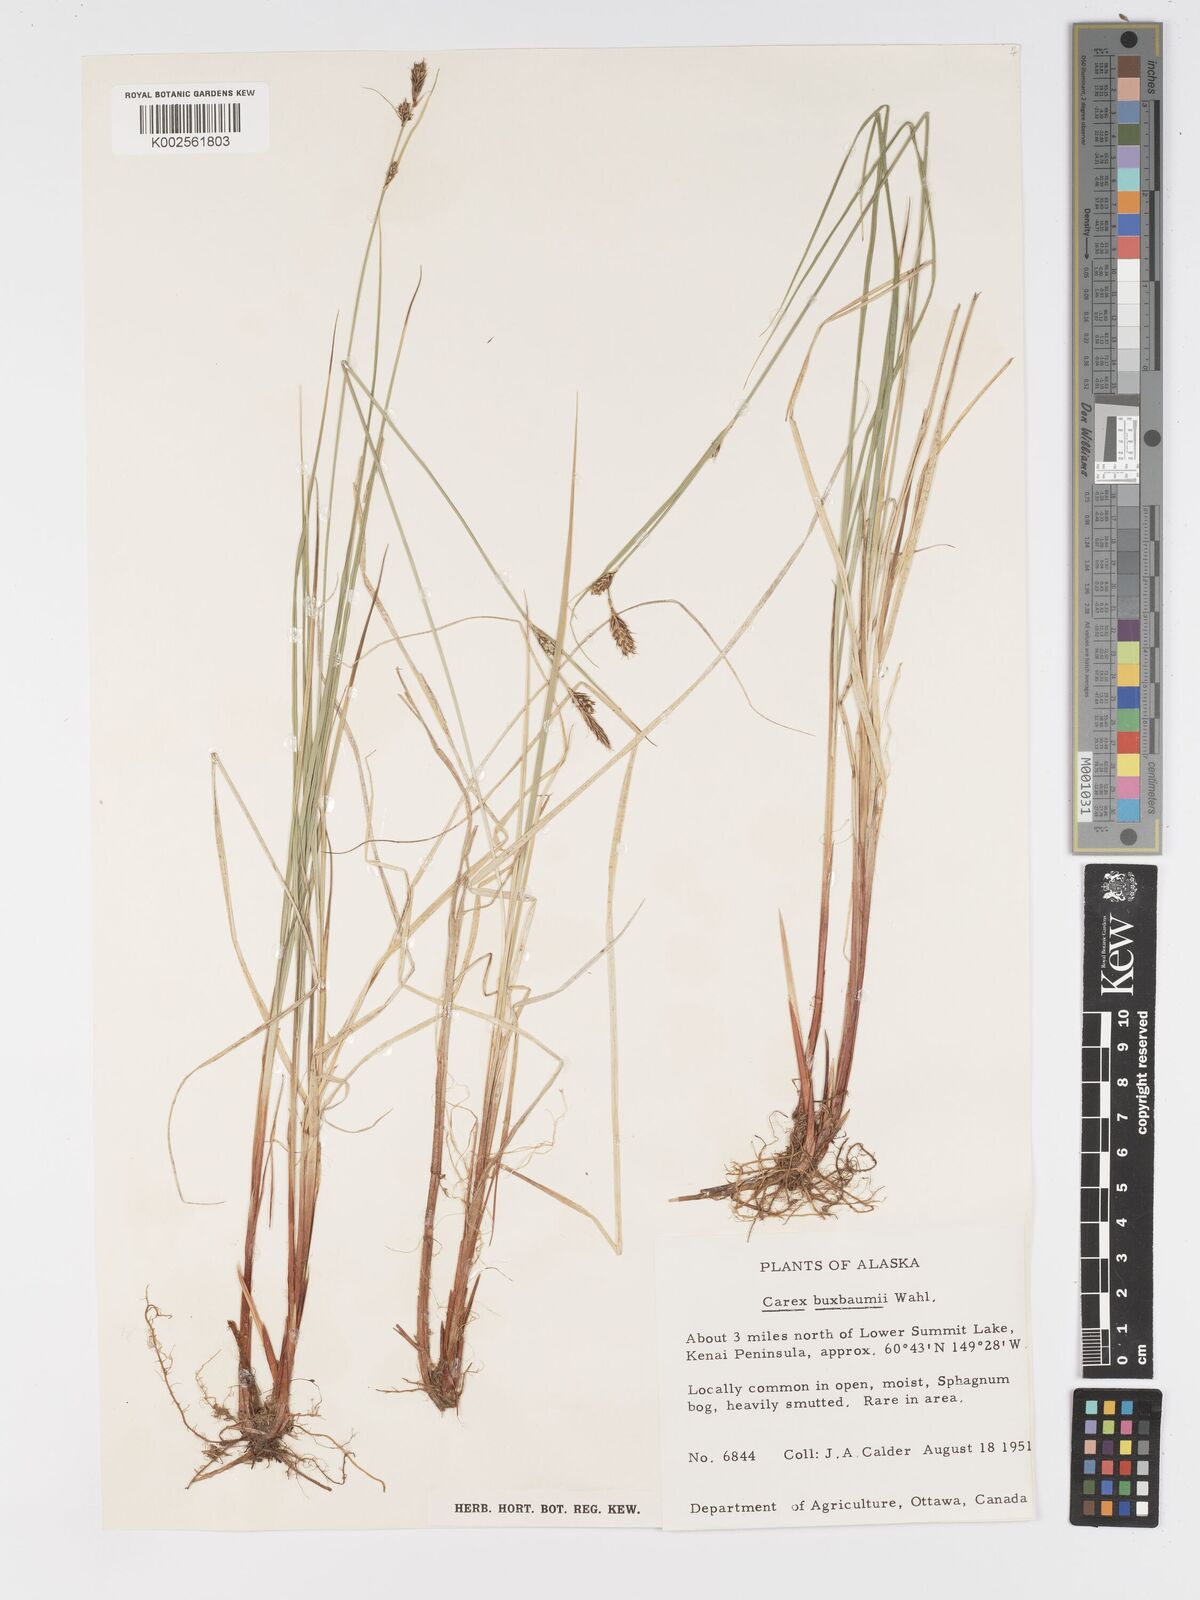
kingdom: Plantae
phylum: Tracheophyta
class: Liliopsida
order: Poales
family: Cyperaceae
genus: Carex
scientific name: Carex buxbaumii
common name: Club sedge
